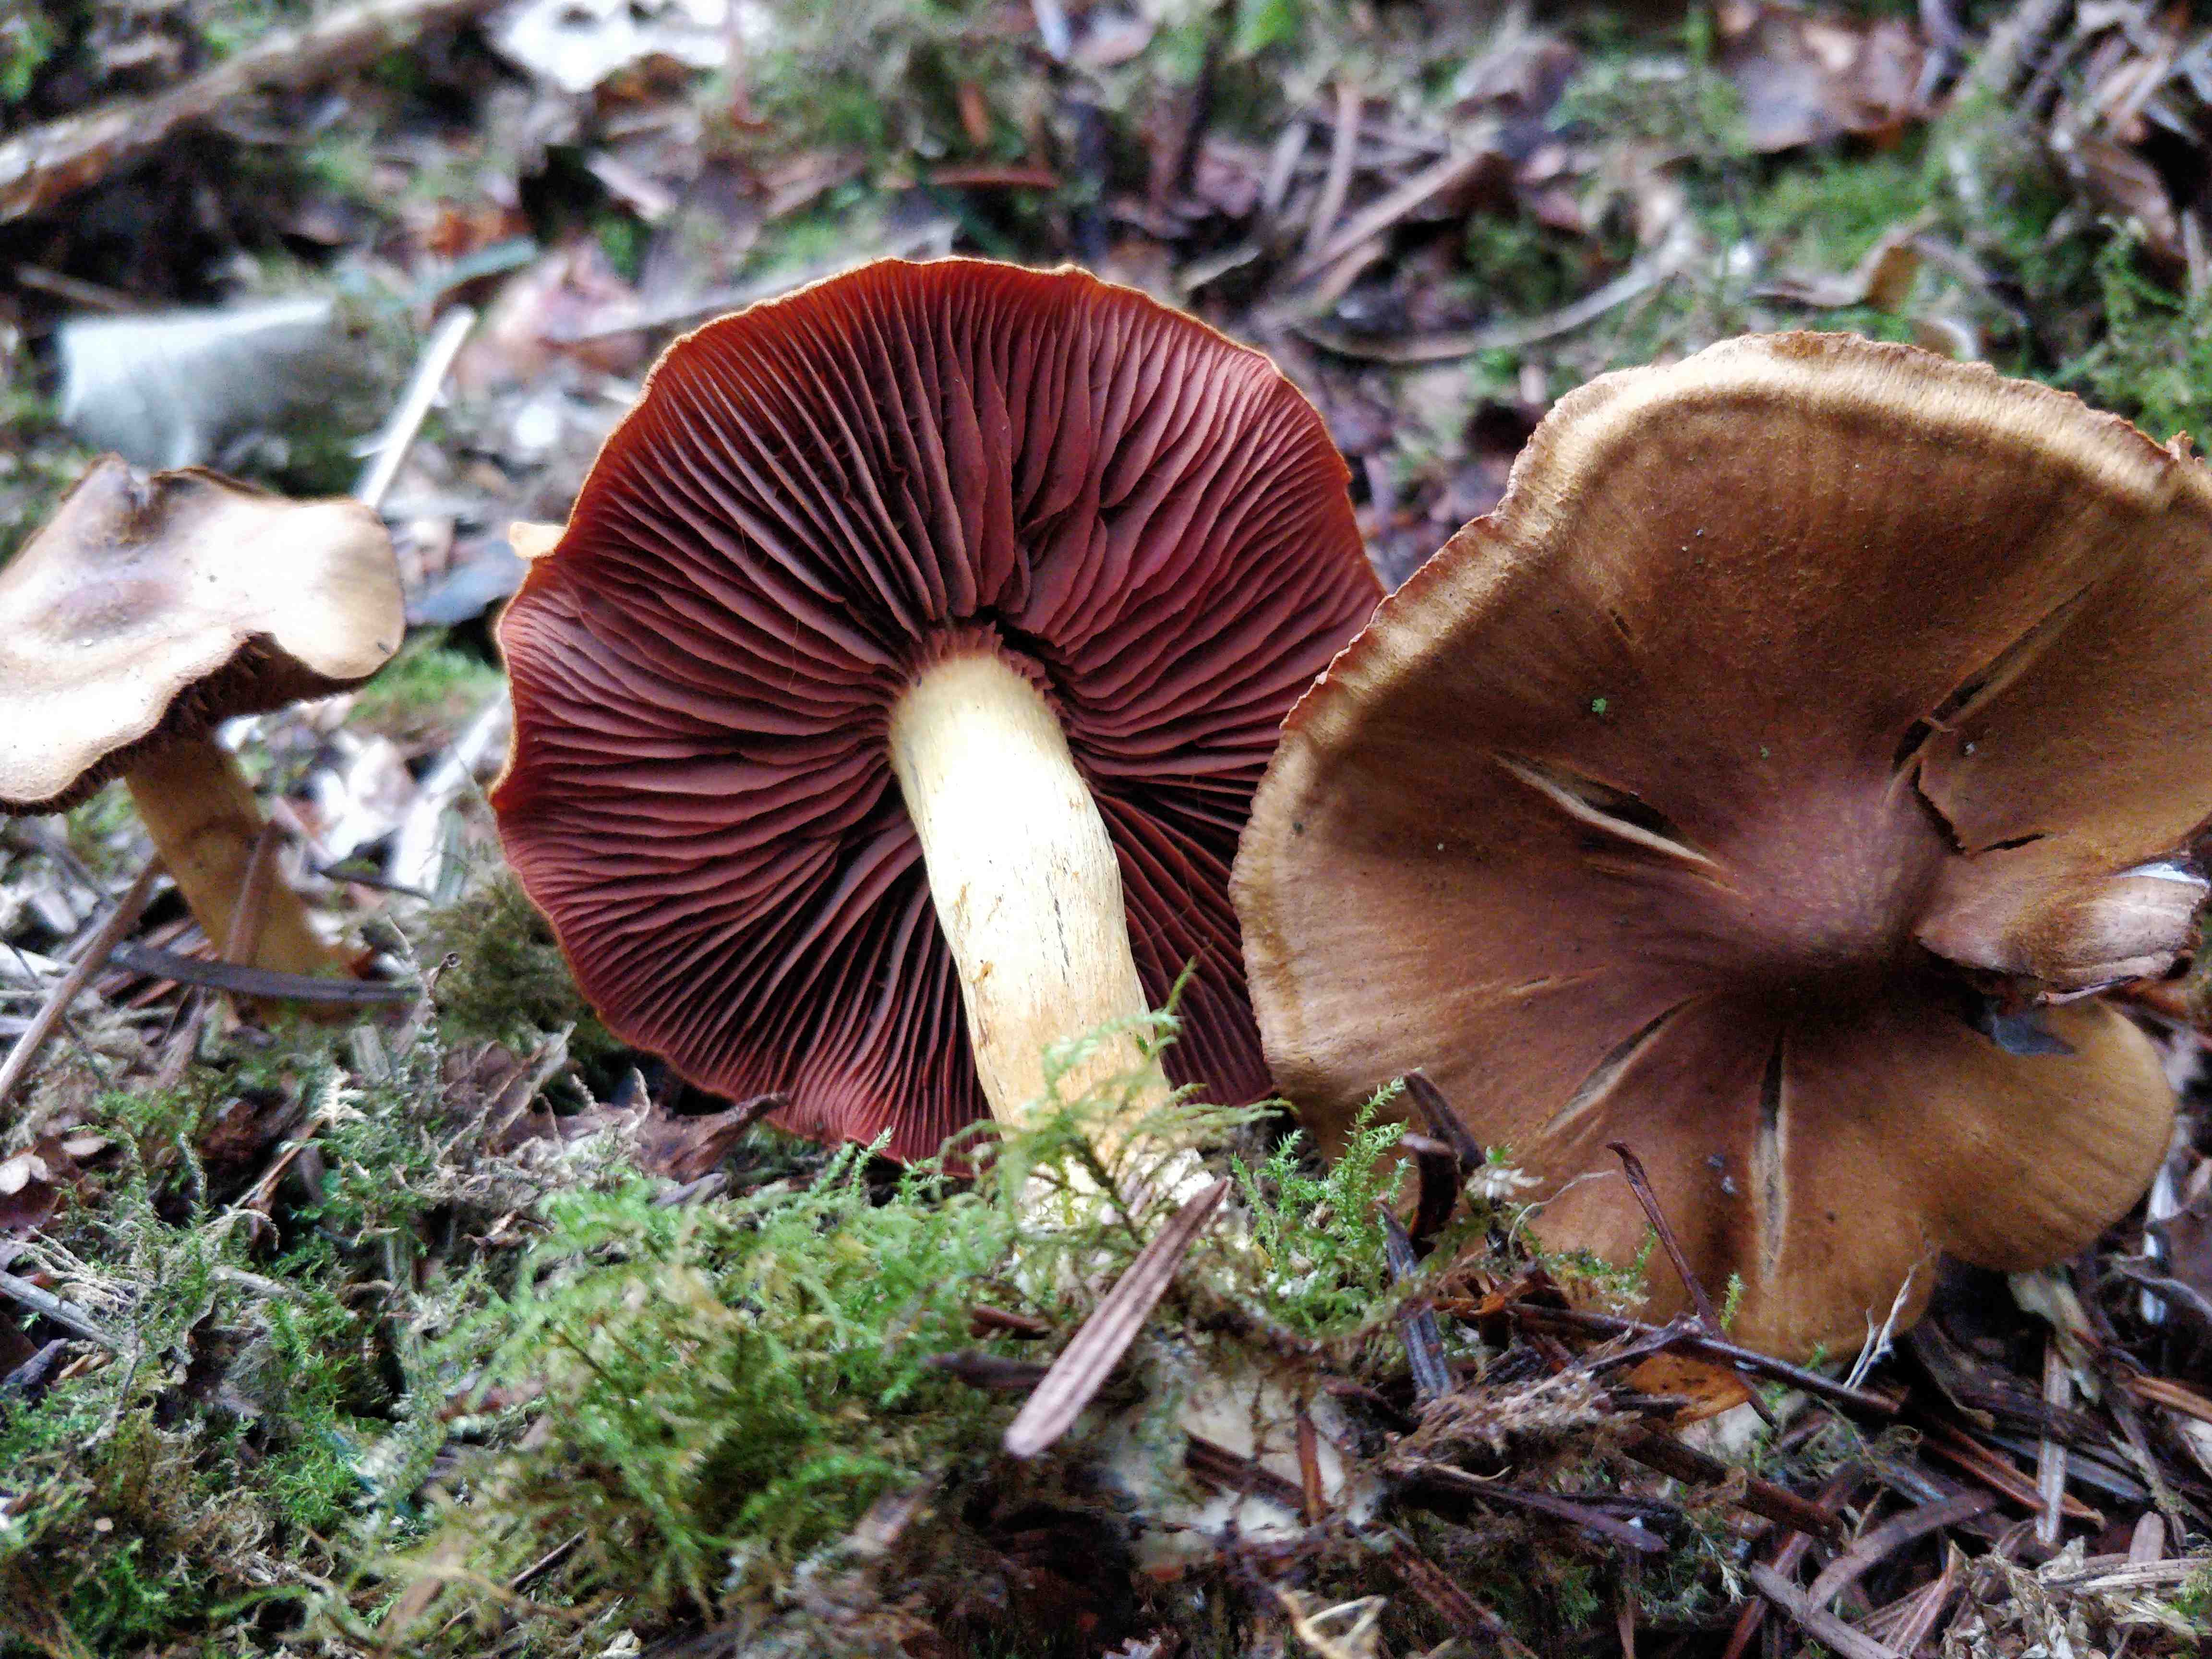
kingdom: Fungi
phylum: Basidiomycota
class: Agaricomycetes
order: Agaricales
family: Cortinariaceae
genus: Cortinarius
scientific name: Cortinarius
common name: cinnoberbladet slørhat
